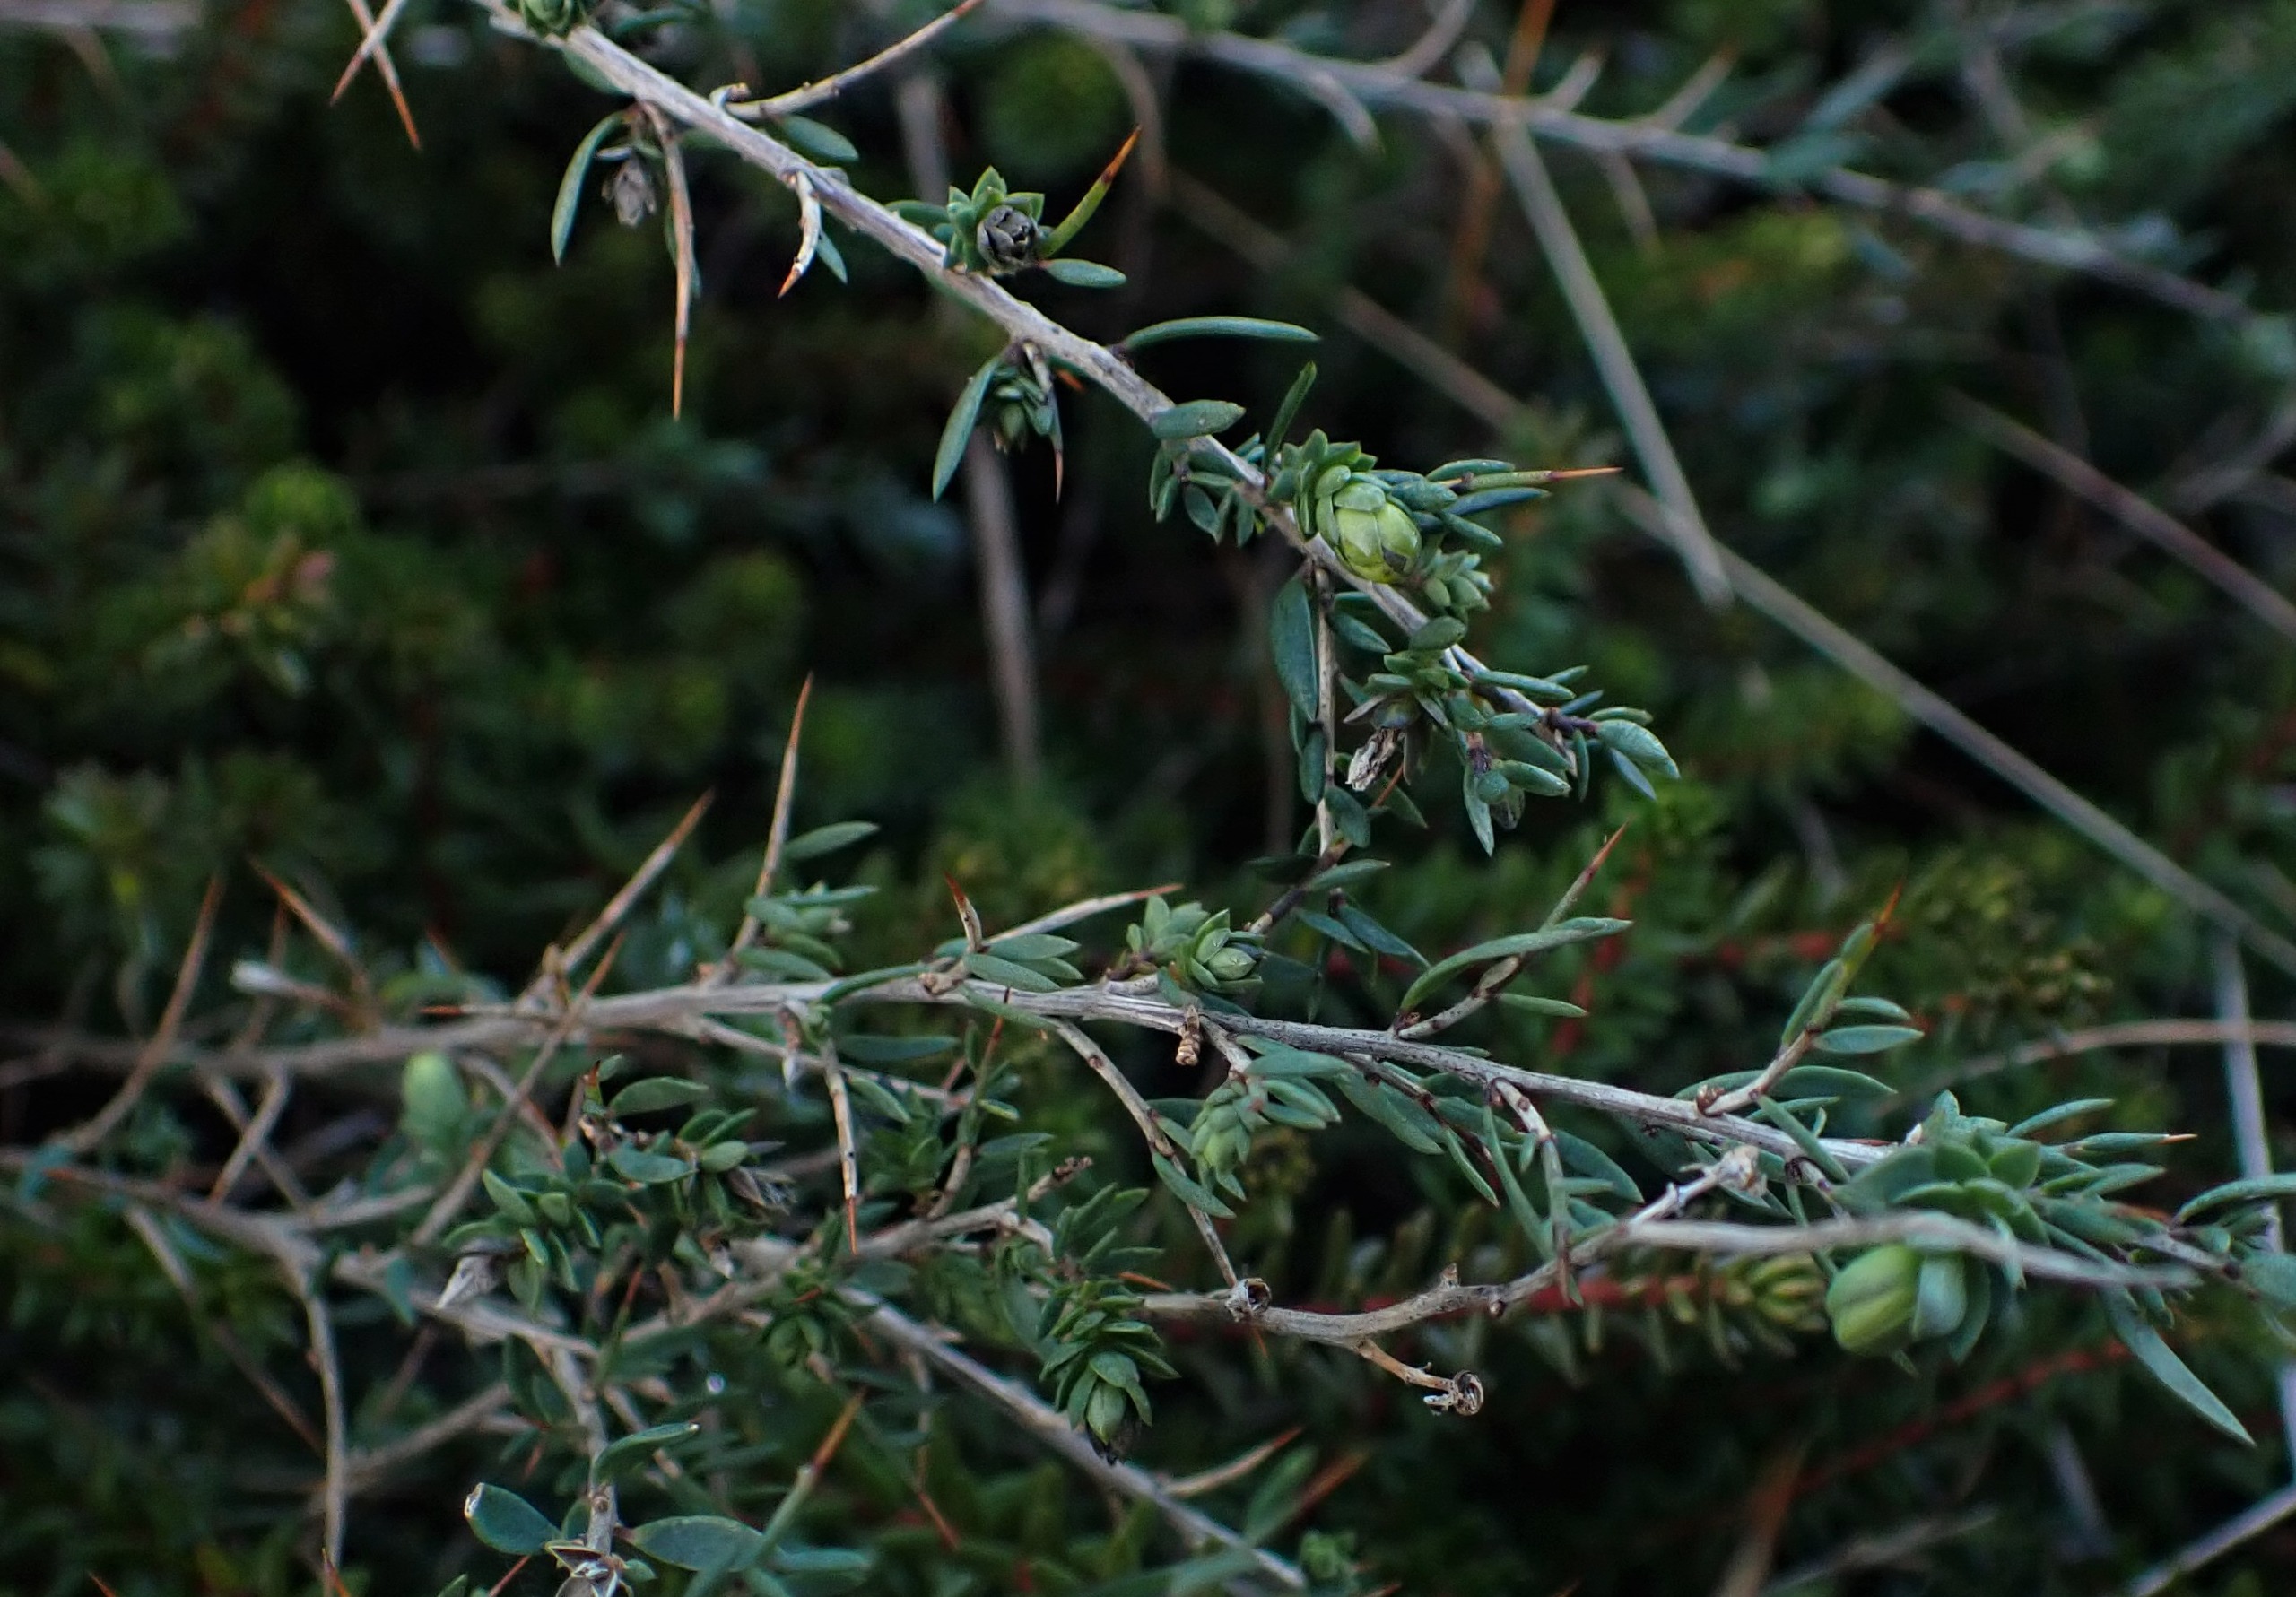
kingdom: Plantae
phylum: Tracheophyta
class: Magnoliopsida
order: Fabales
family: Fabaceae
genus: Genista
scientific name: Genista anglica
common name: Engelsk visse
